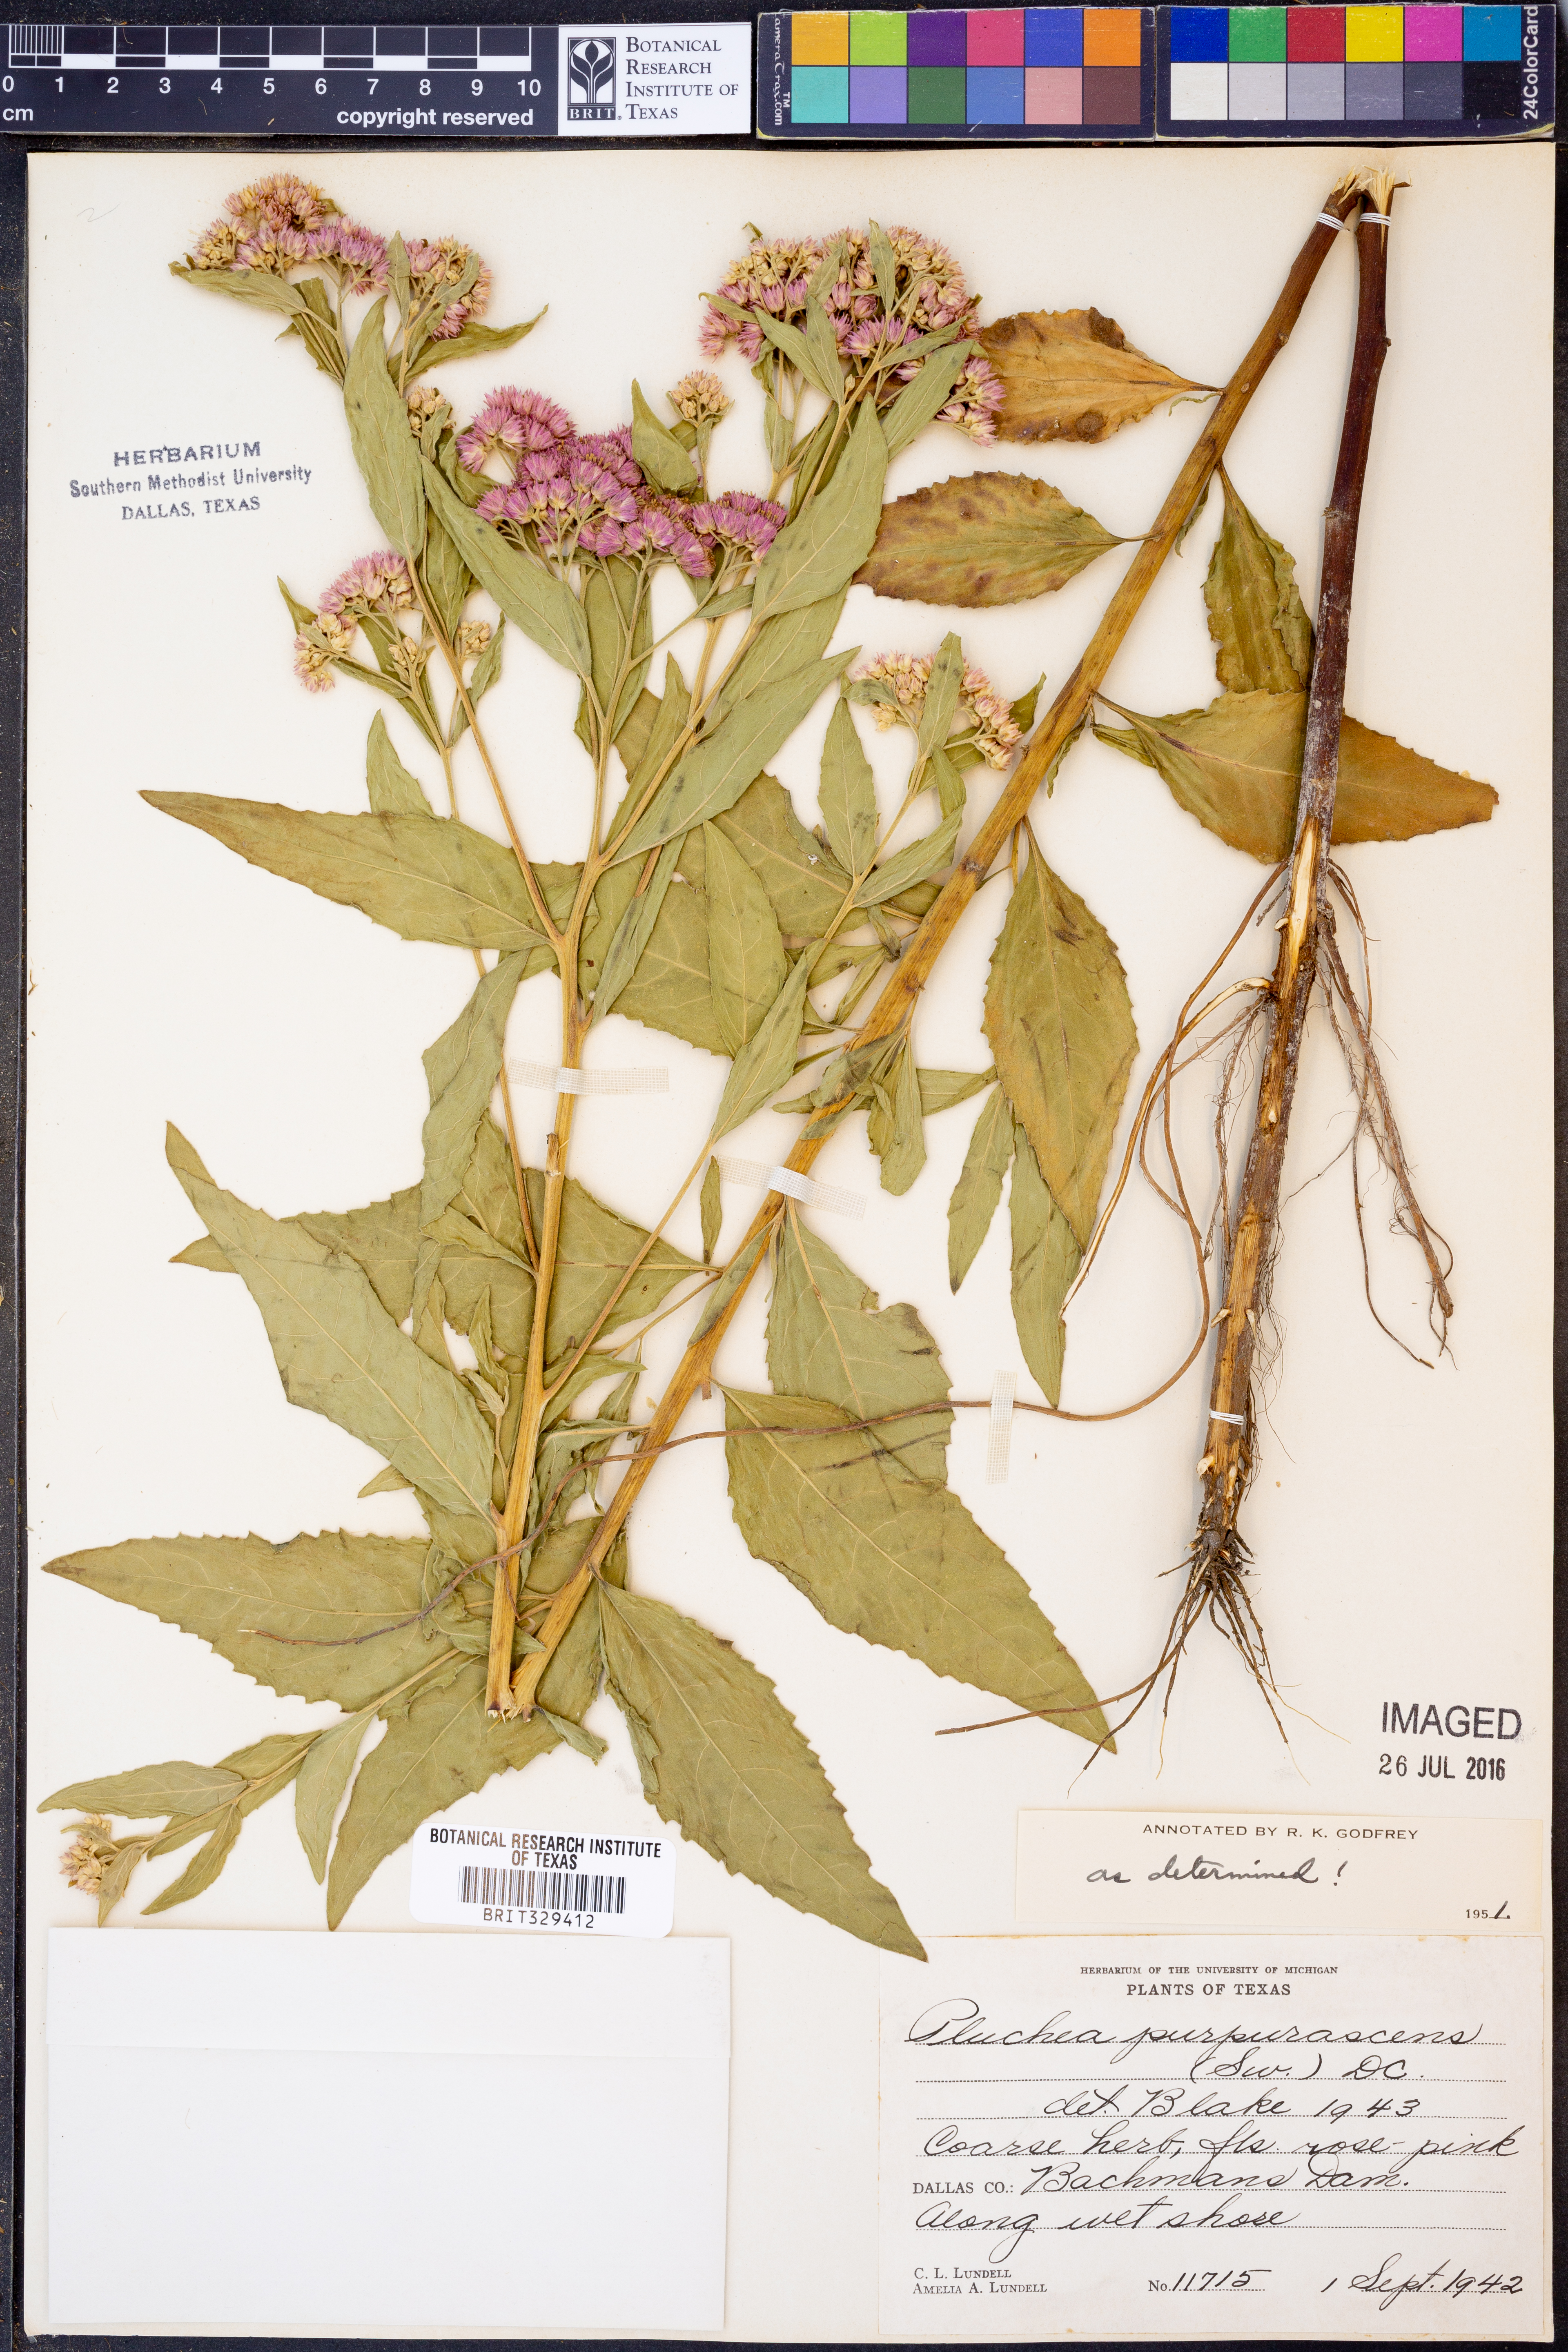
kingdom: Plantae
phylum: Tracheophyta
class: Magnoliopsida
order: Asterales
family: Asteraceae
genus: Pluchea
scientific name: Pluchea odorata
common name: Saltmarsh fleabane
